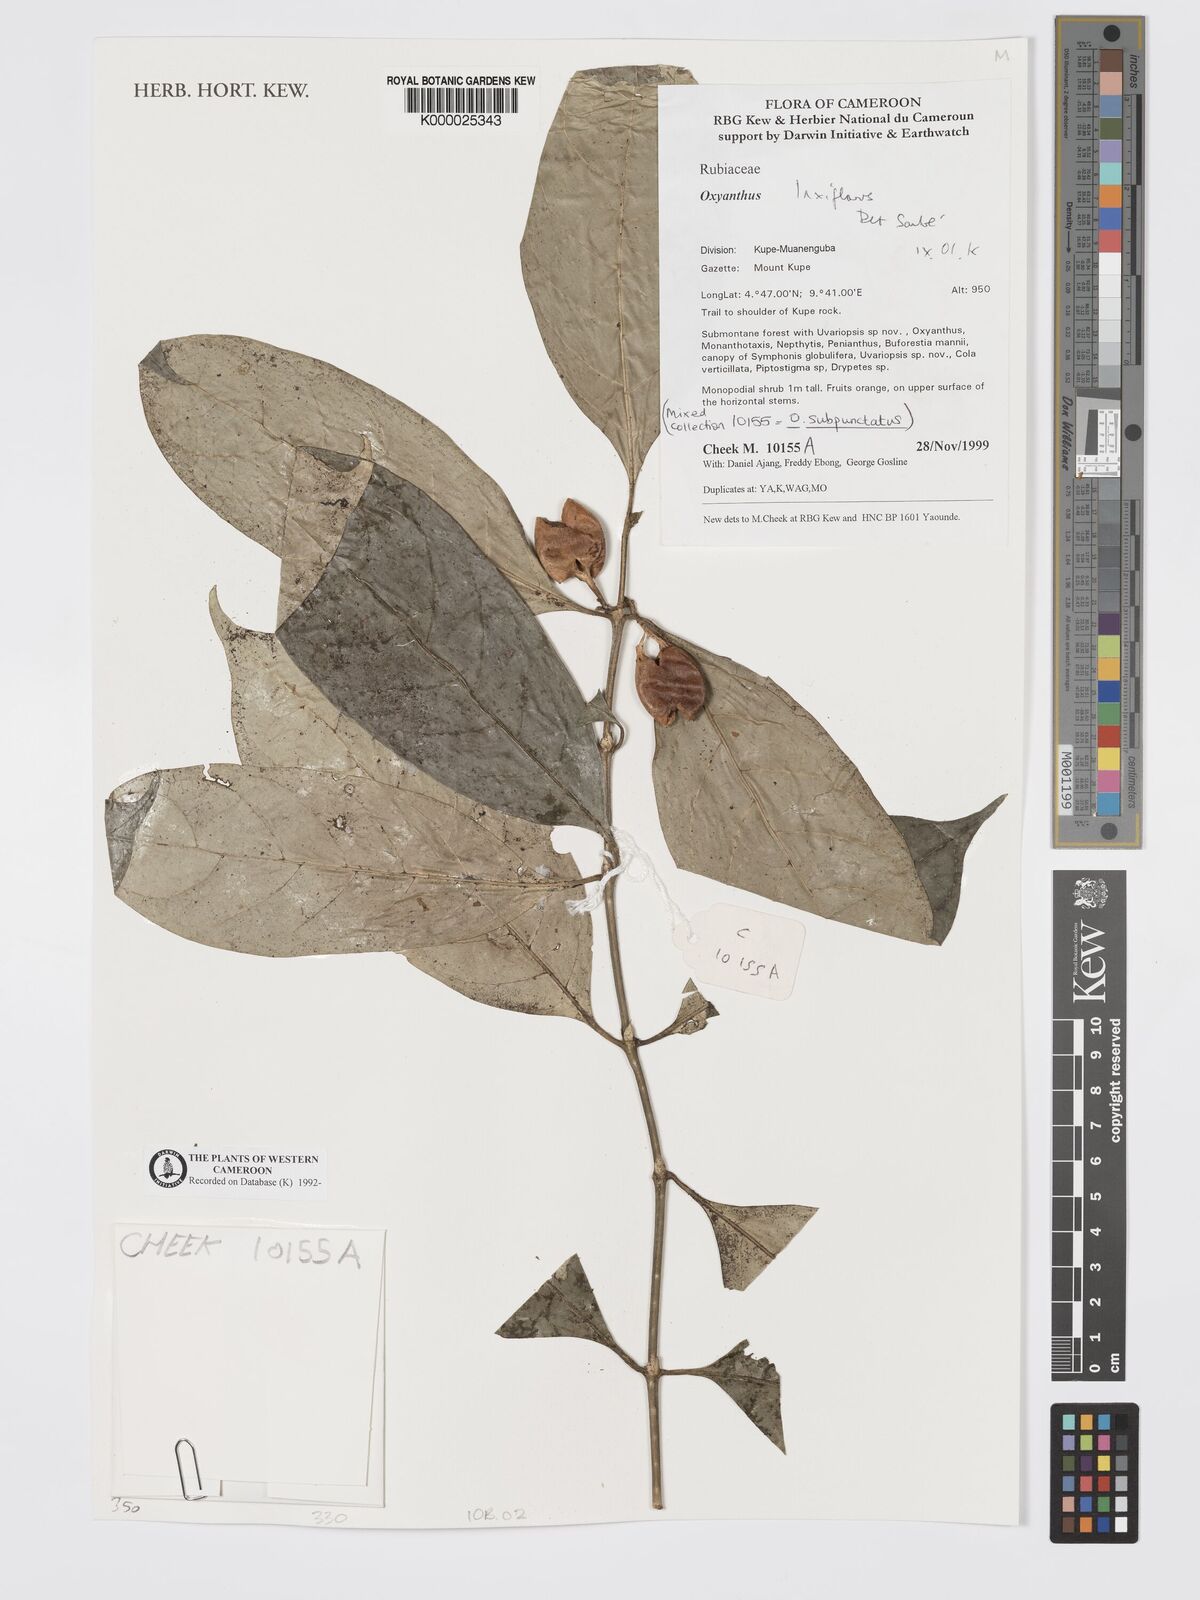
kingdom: Plantae
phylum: Tracheophyta
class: Magnoliopsida
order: Gentianales
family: Rubiaceae
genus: Oxyanthus
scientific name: Oxyanthus laxiflorus
